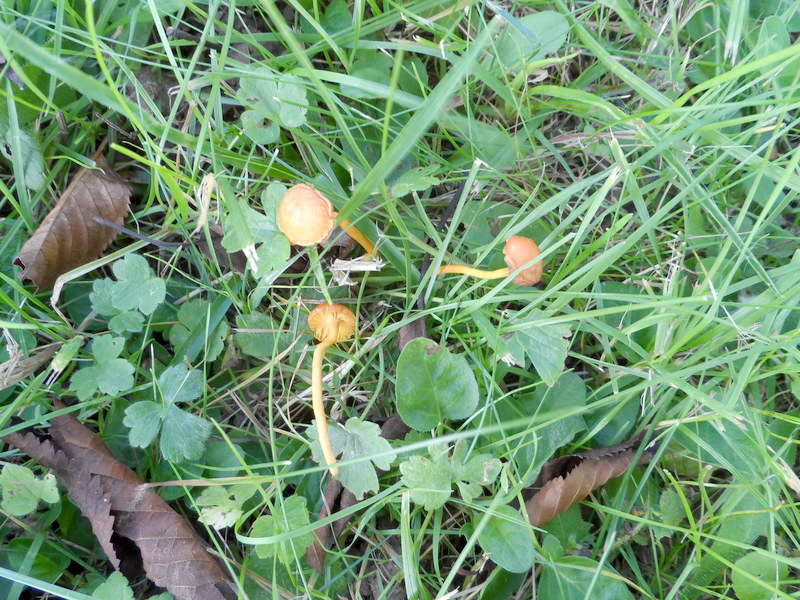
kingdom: Fungi
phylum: Basidiomycota
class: Agaricomycetes
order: Agaricales
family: Hygrophoraceae
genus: Hygrocybe
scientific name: Hygrocybe miniata
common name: Vermilion waxcap
